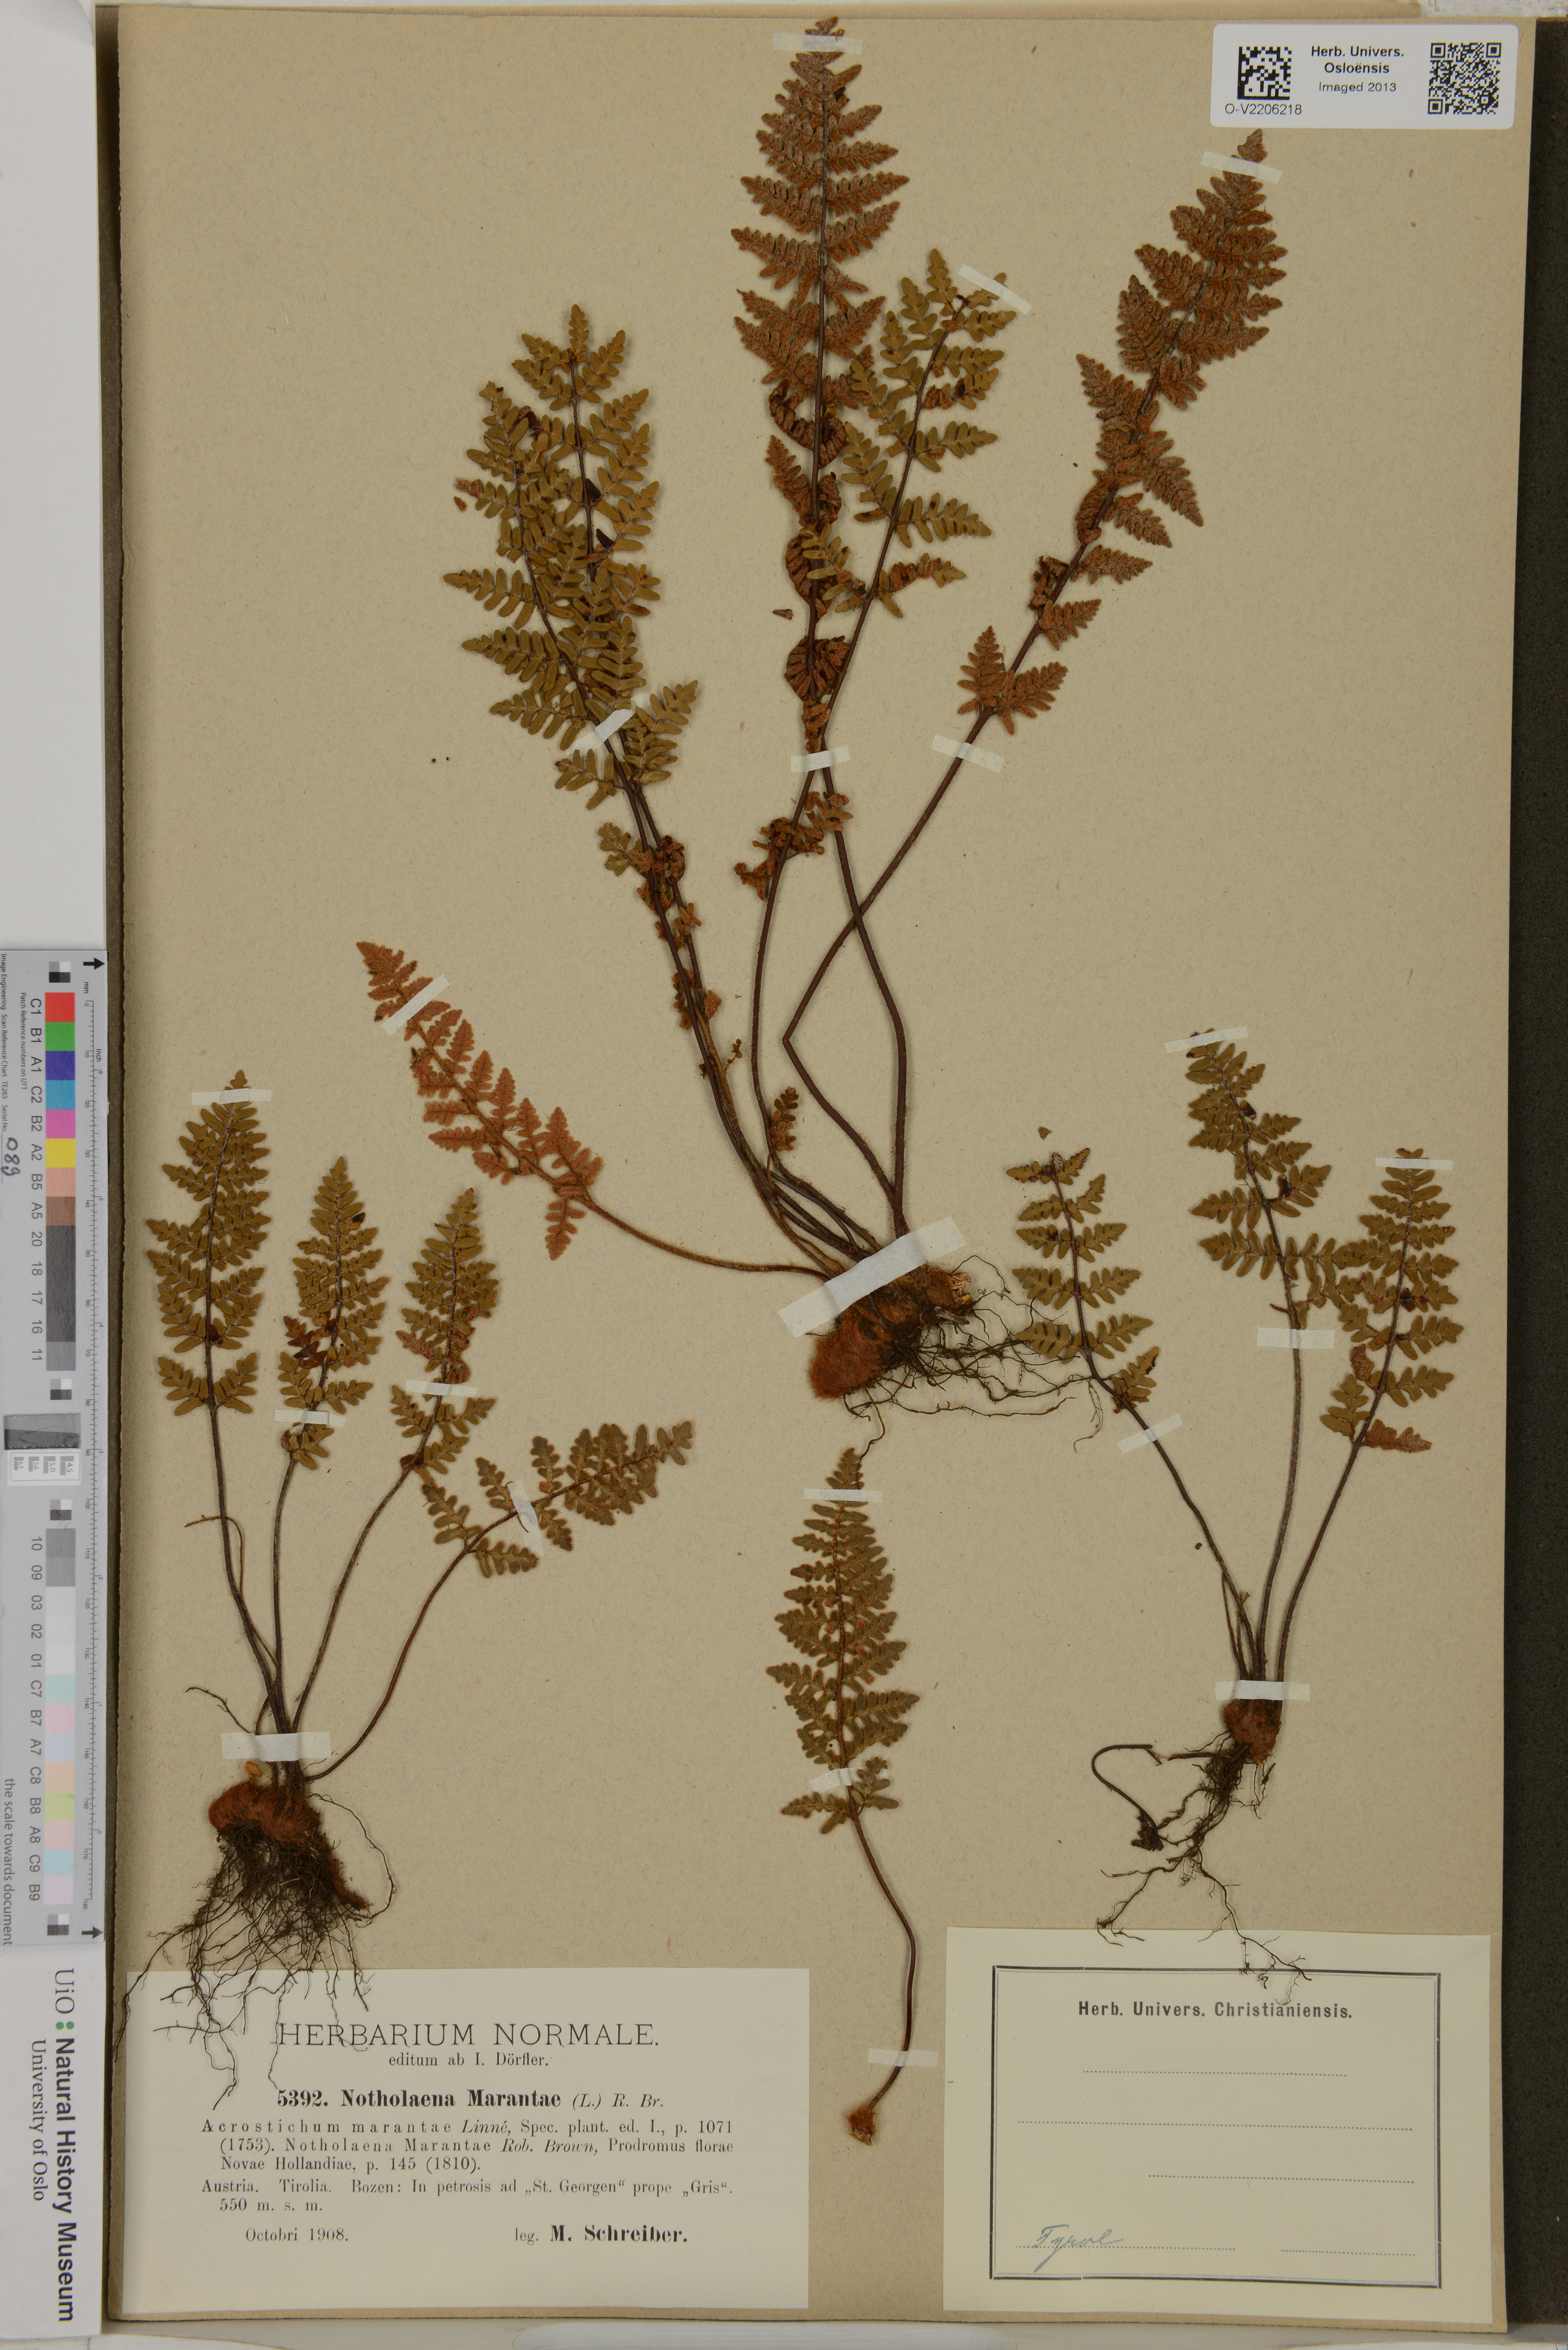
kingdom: Plantae
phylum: Tracheophyta
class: Polypodiopsida
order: Polypodiales
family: Pteridaceae
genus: Paragymnopteris
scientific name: Paragymnopteris marantae
